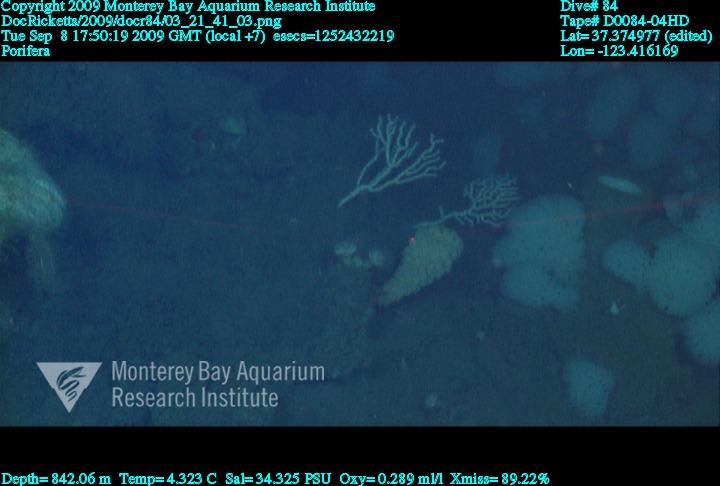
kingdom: Animalia
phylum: Porifera
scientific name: Porifera
